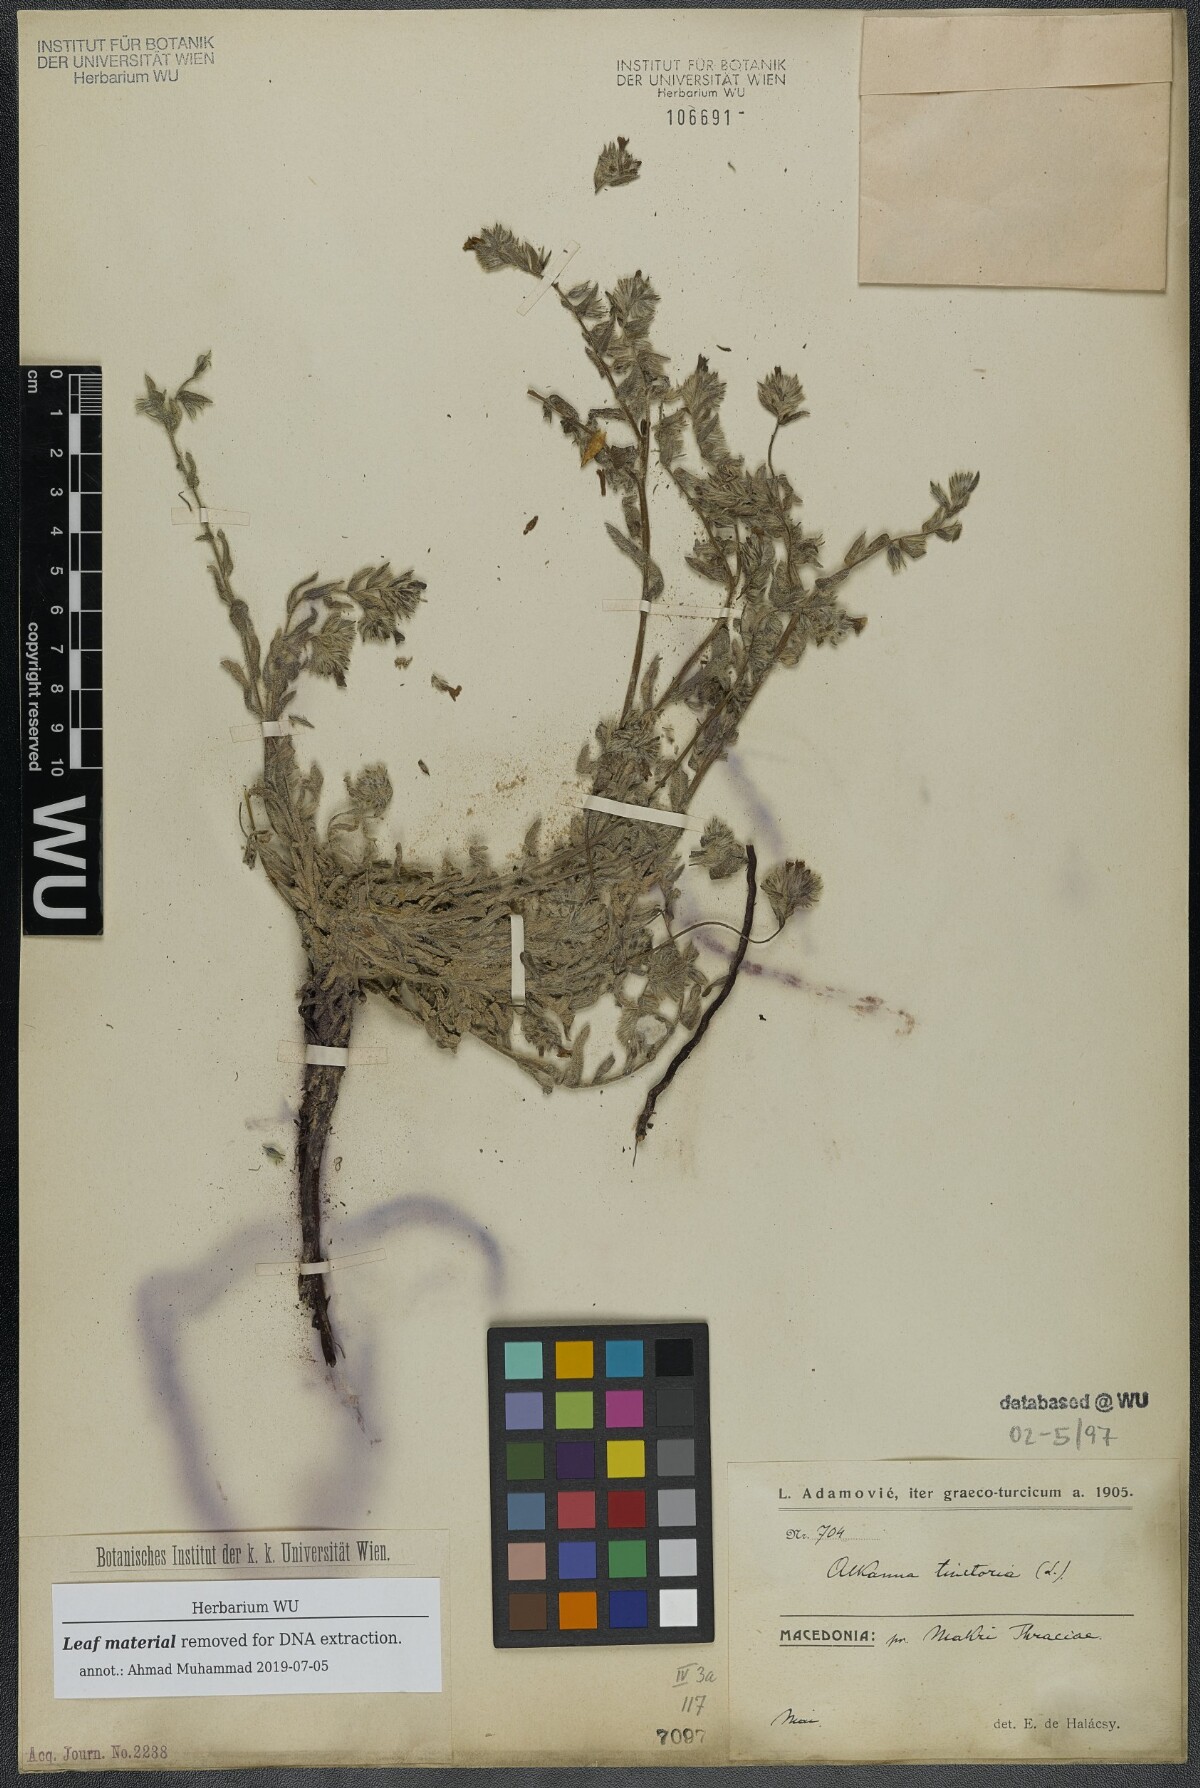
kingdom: Plantae
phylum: Tracheophyta
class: Magnoliopsida
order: Boraginales
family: Boraginaceae
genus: Alkanna
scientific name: Alkanna tinctoria
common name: Dyer's-alkanet
